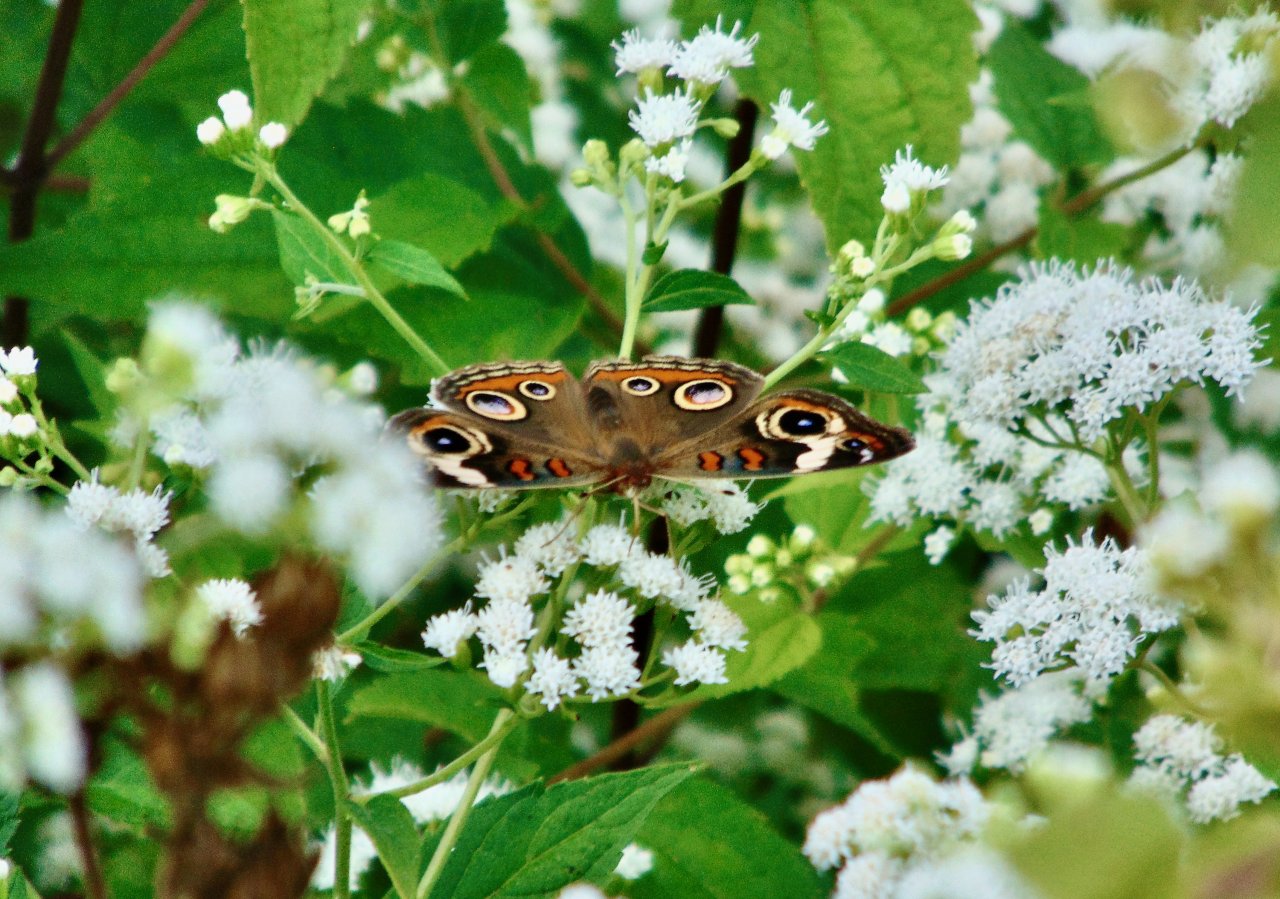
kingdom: Animalia
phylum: Arthropoda
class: Insecta
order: Lepidoptera
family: Nymphalidae
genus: Junonia
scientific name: Junonia coenia
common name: Common Buckeye
